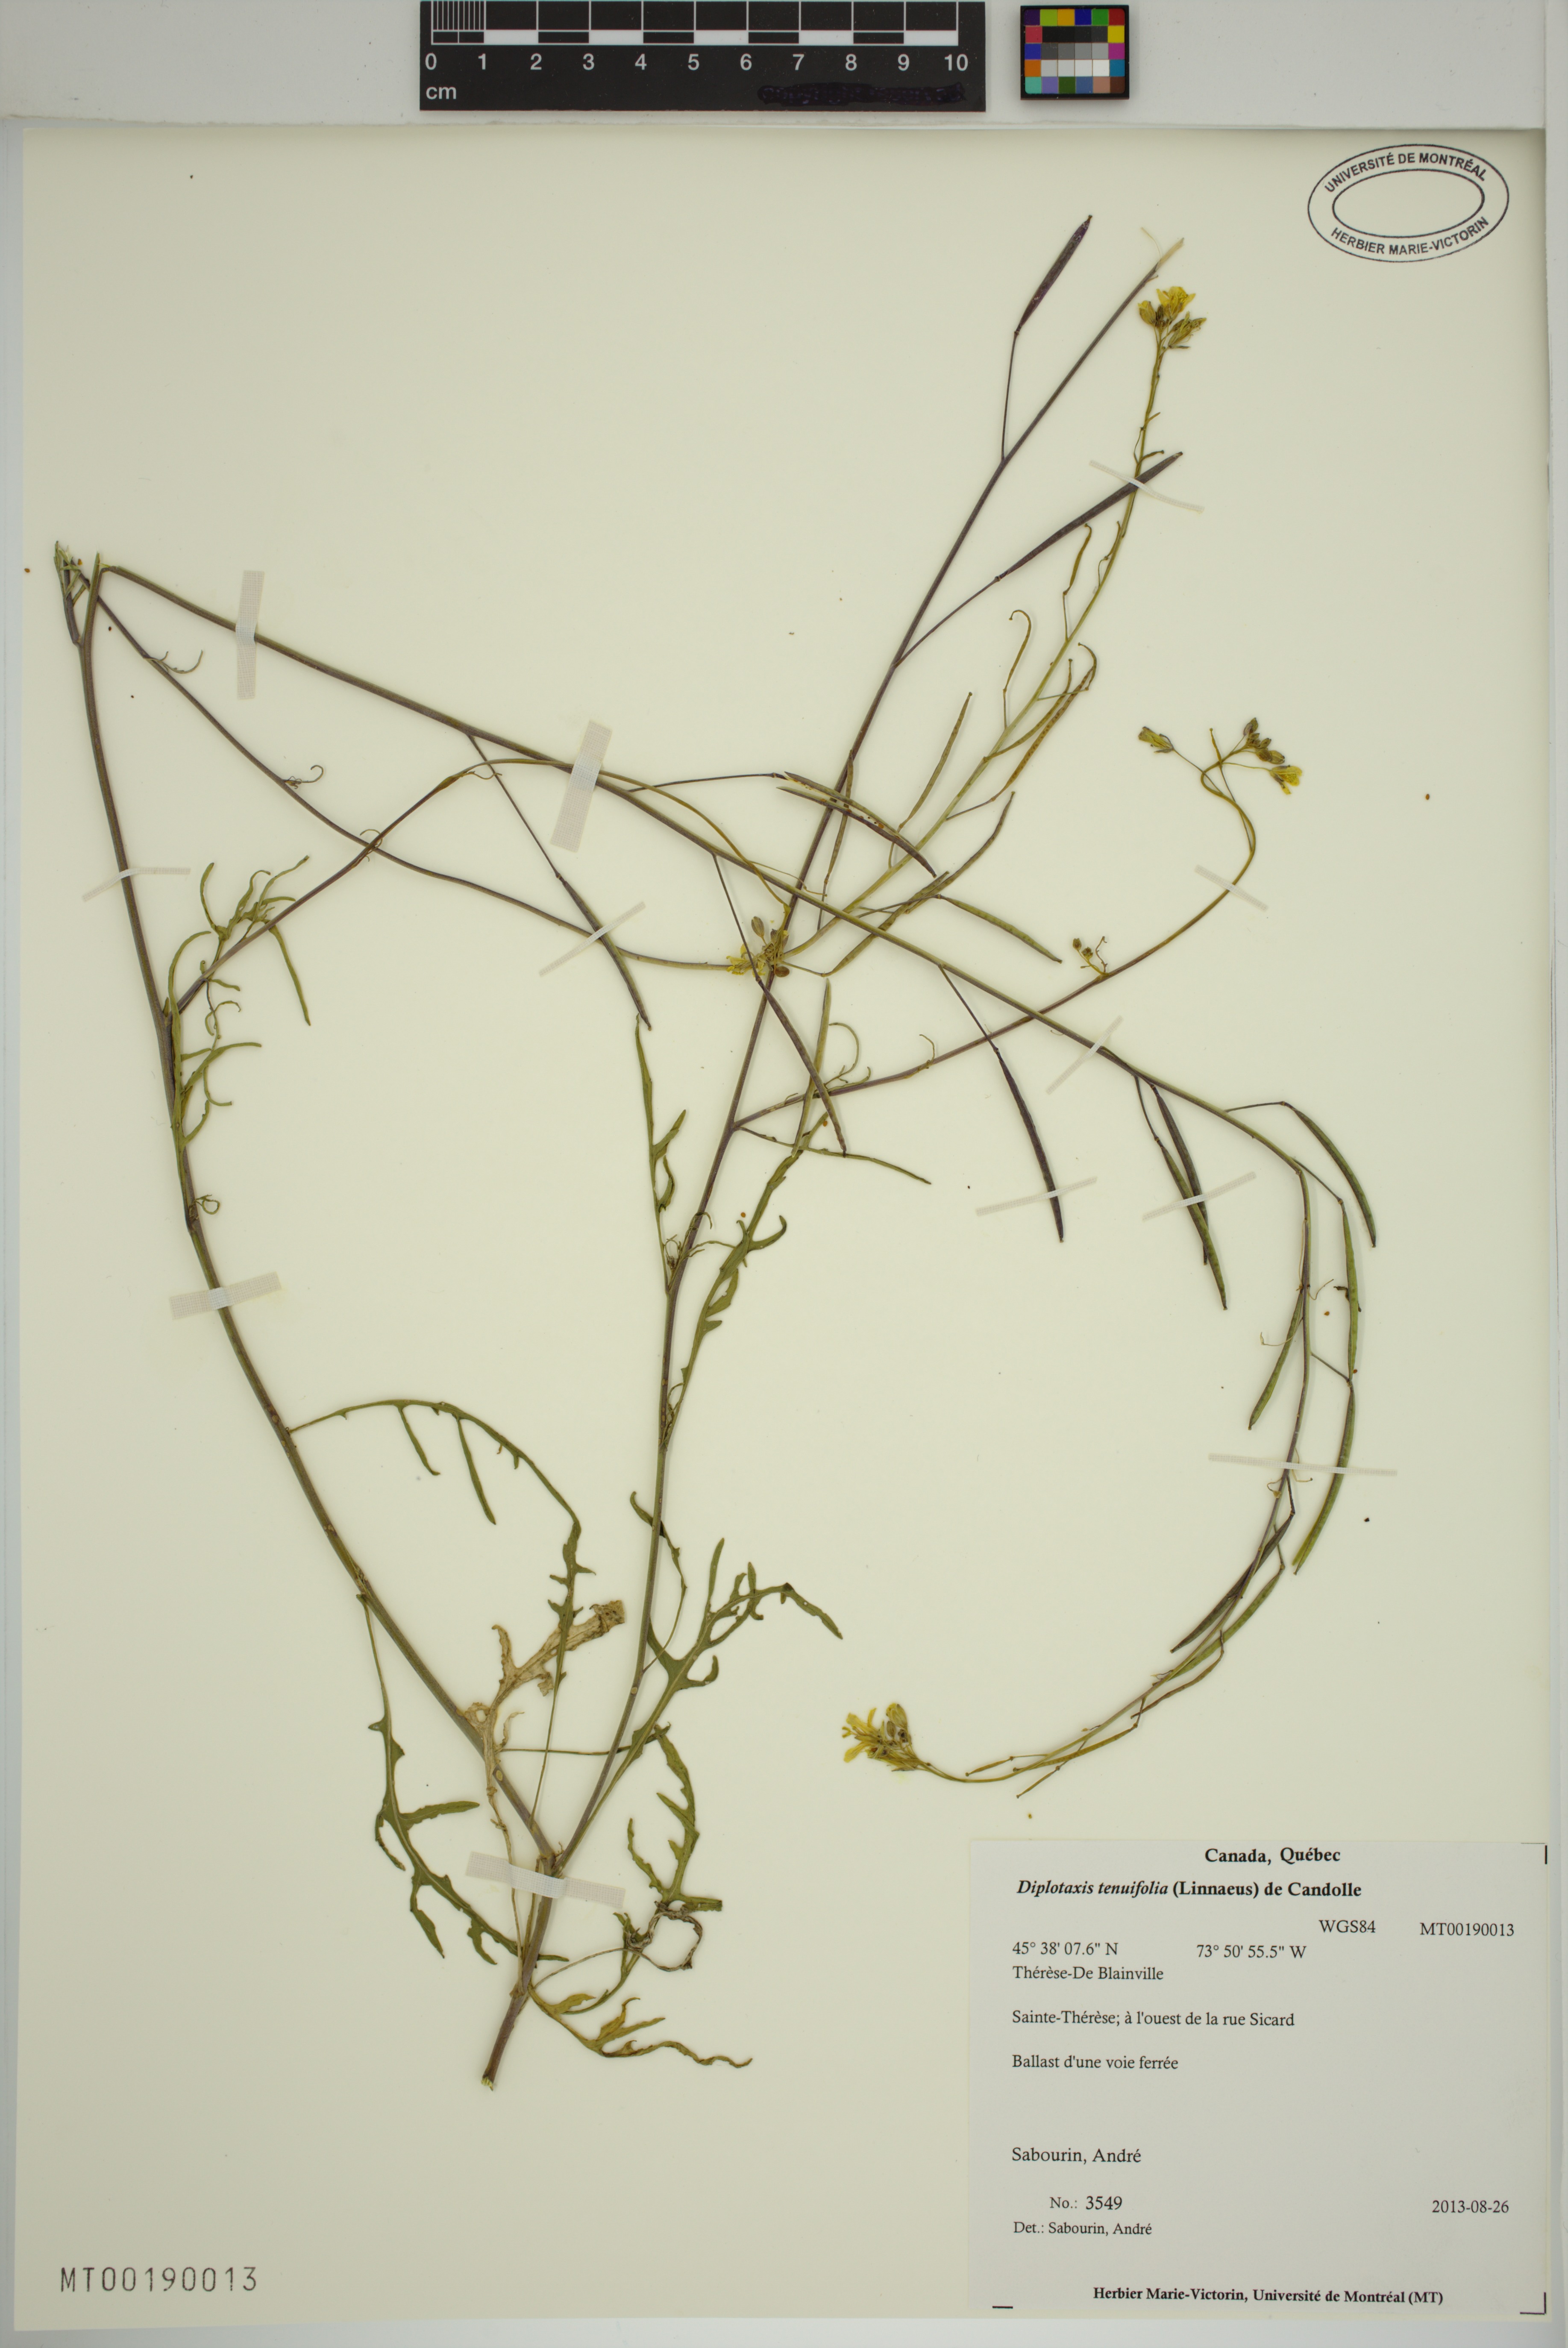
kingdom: Plantae
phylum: Tracheophyta
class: Magnoliopsida
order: Brassicales
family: Brassicaceae
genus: Diplotaxis
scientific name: Diplotaxis tenuifolia
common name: Perennial wall-rocket
